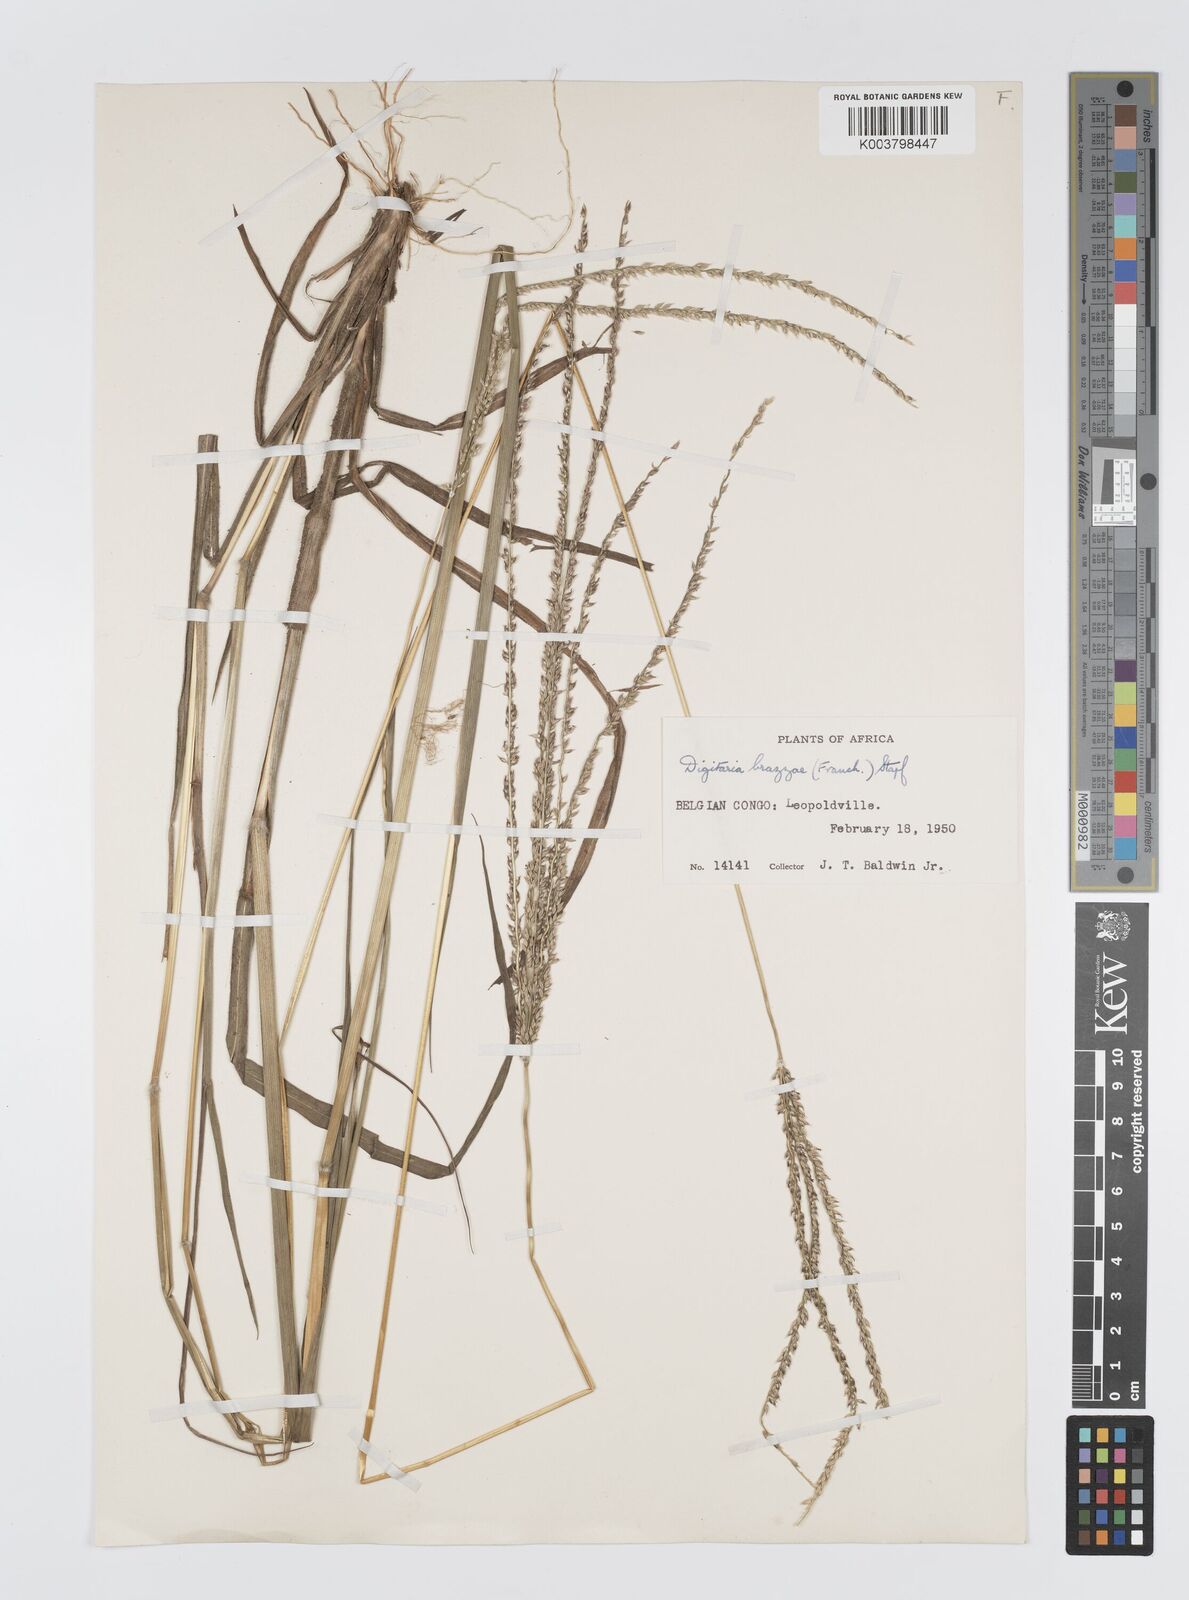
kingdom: Plantae
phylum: Tracheophyta
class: Liliopsida
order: Poales
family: Poaceae
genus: Digitaria
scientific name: Digitaria brazzae
